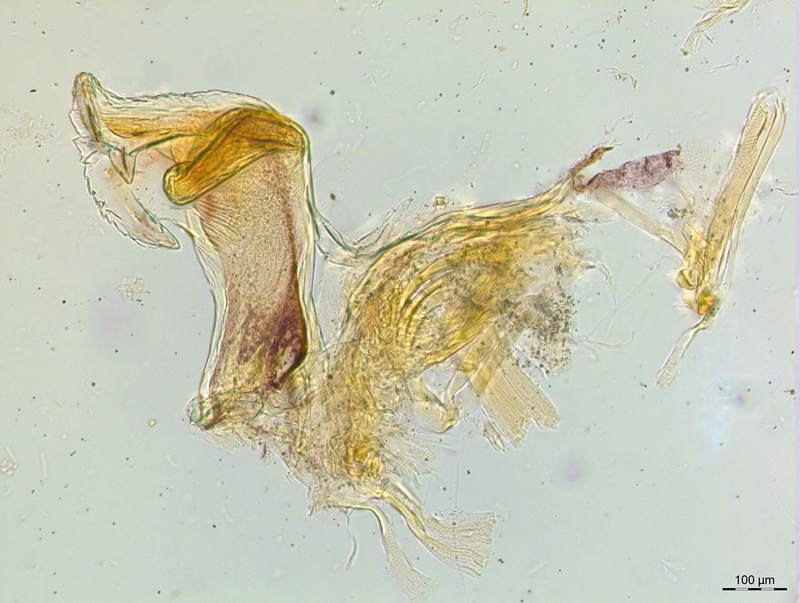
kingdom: Animalia
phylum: Arthropoda
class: Diplopoda
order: Chordeumatida
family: Craspedosomatidae
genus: Craspedosoma
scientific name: Craspedosoma transsilvanicum
